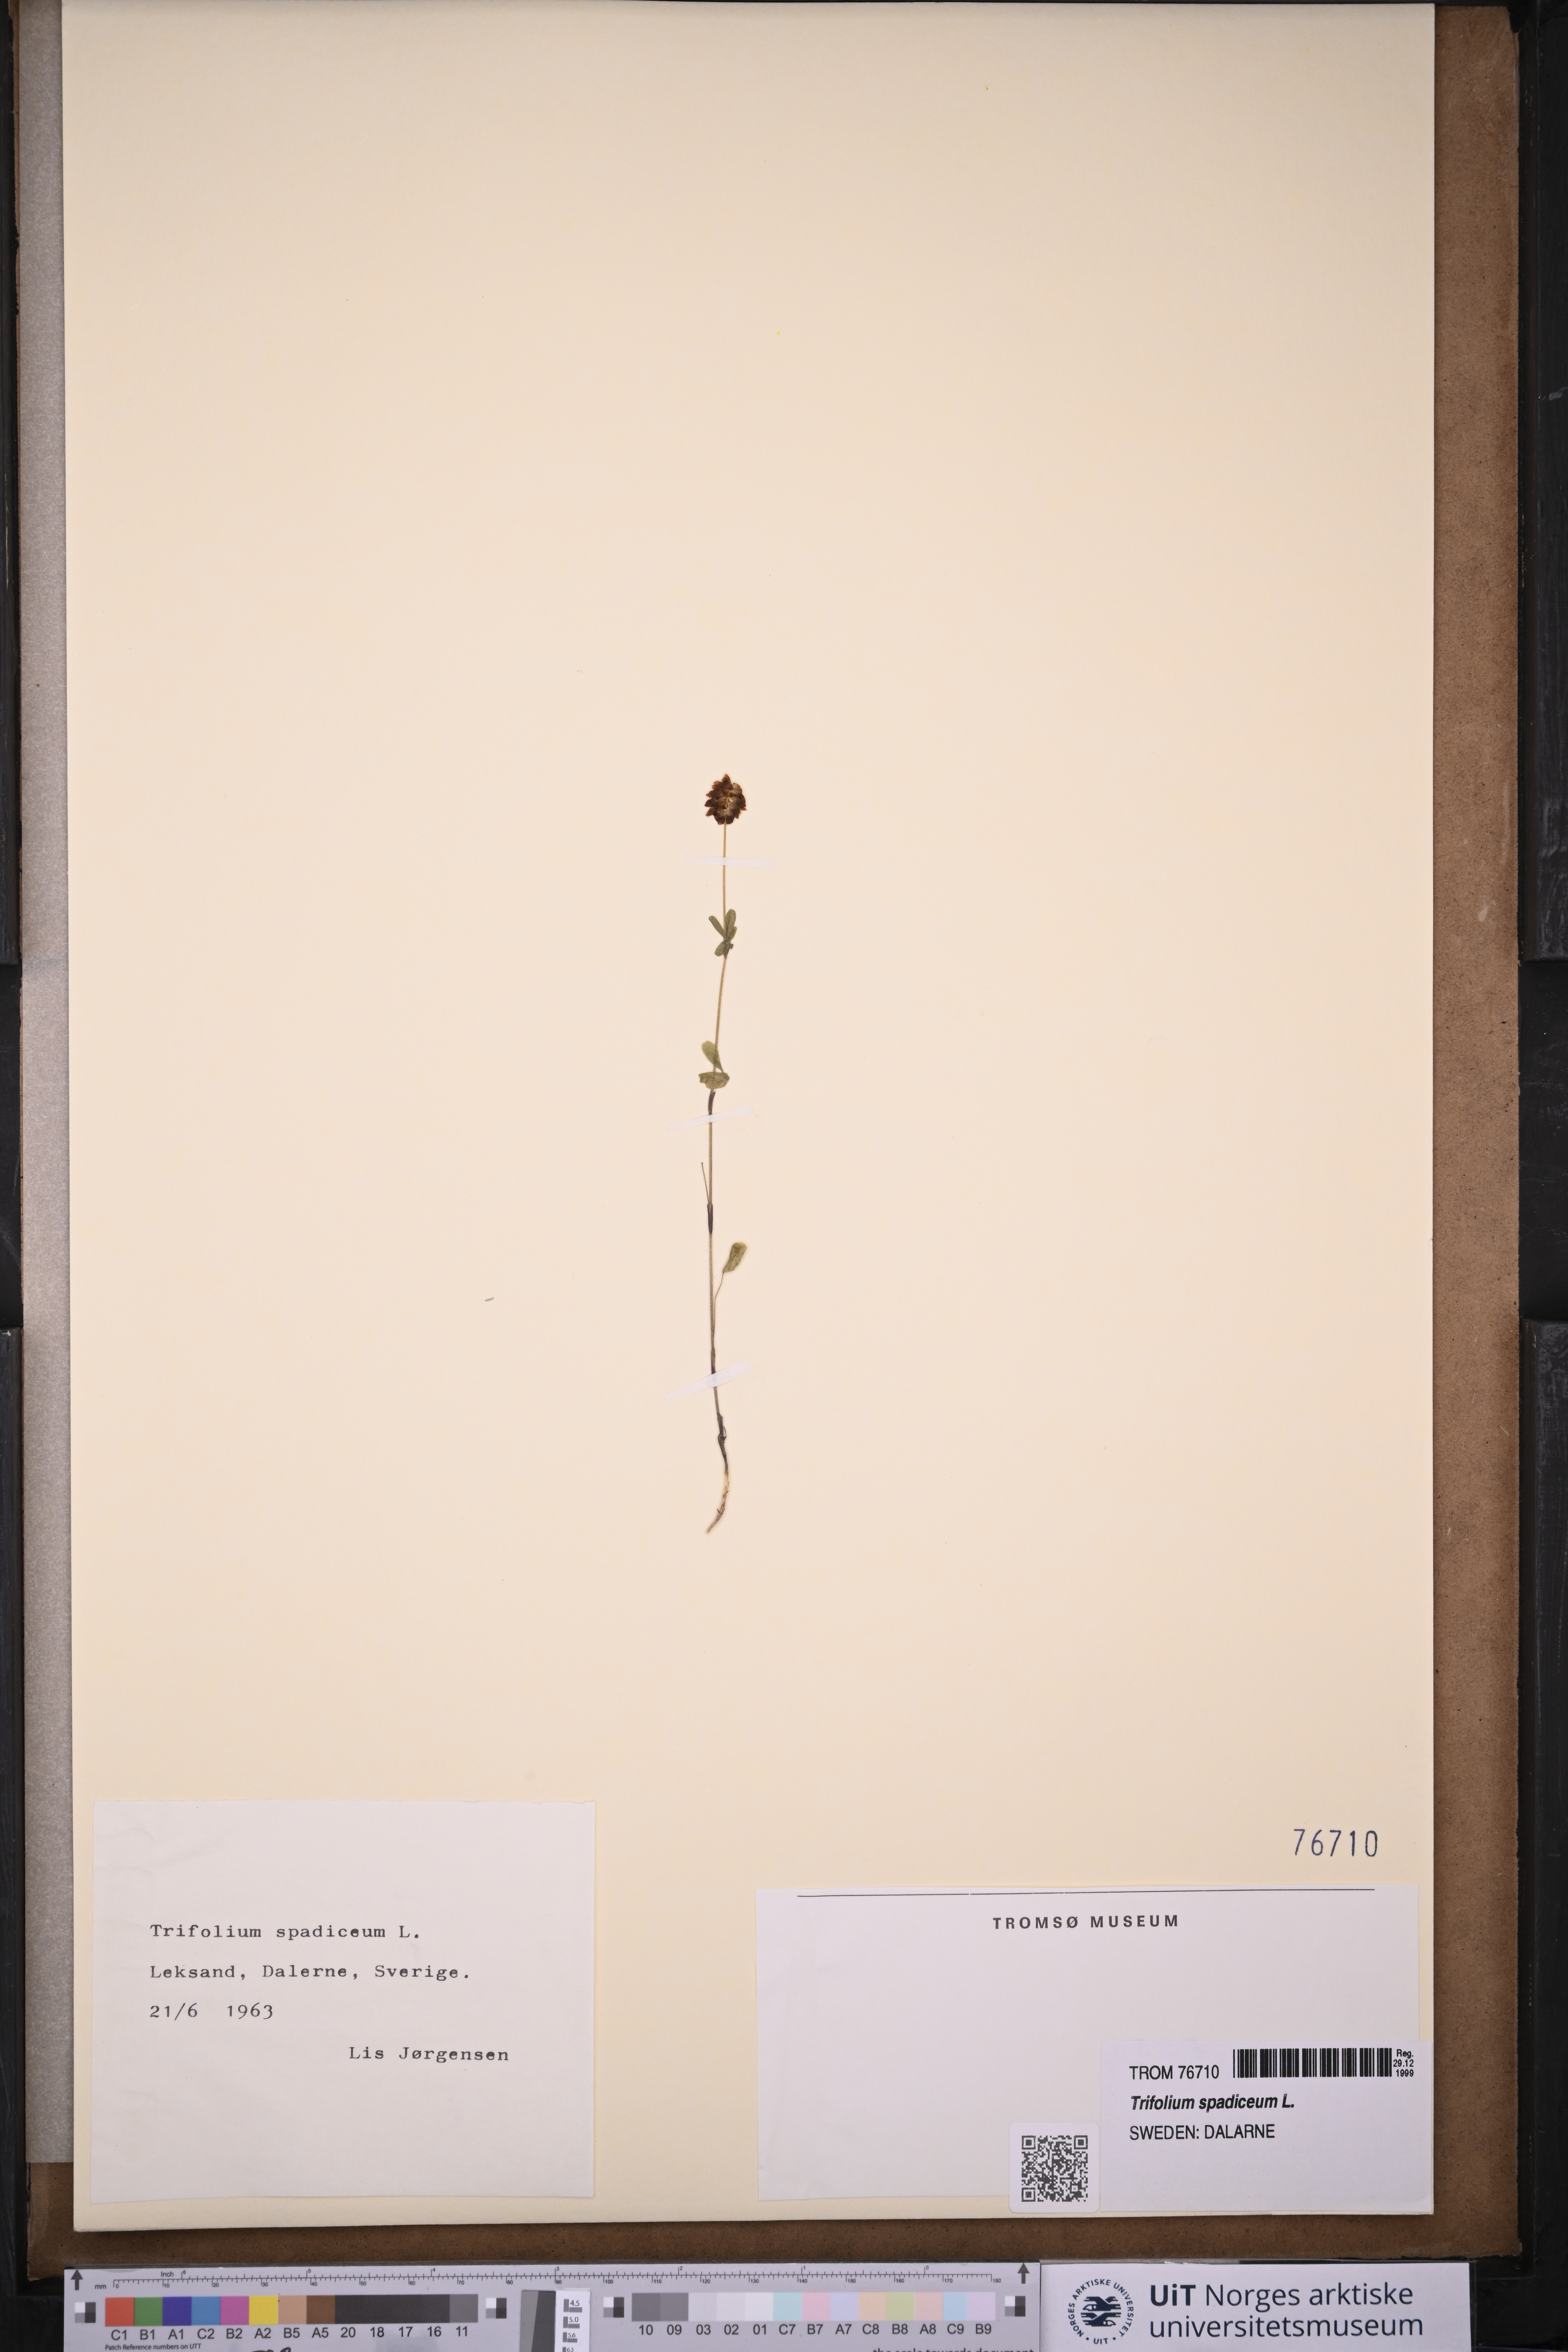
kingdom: Plantae
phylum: Tracheophyta
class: Magnoliopsida
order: Fabales
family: Fabaceae
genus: Trifolium
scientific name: Trifolium spadiceum
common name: Brown moor clover
